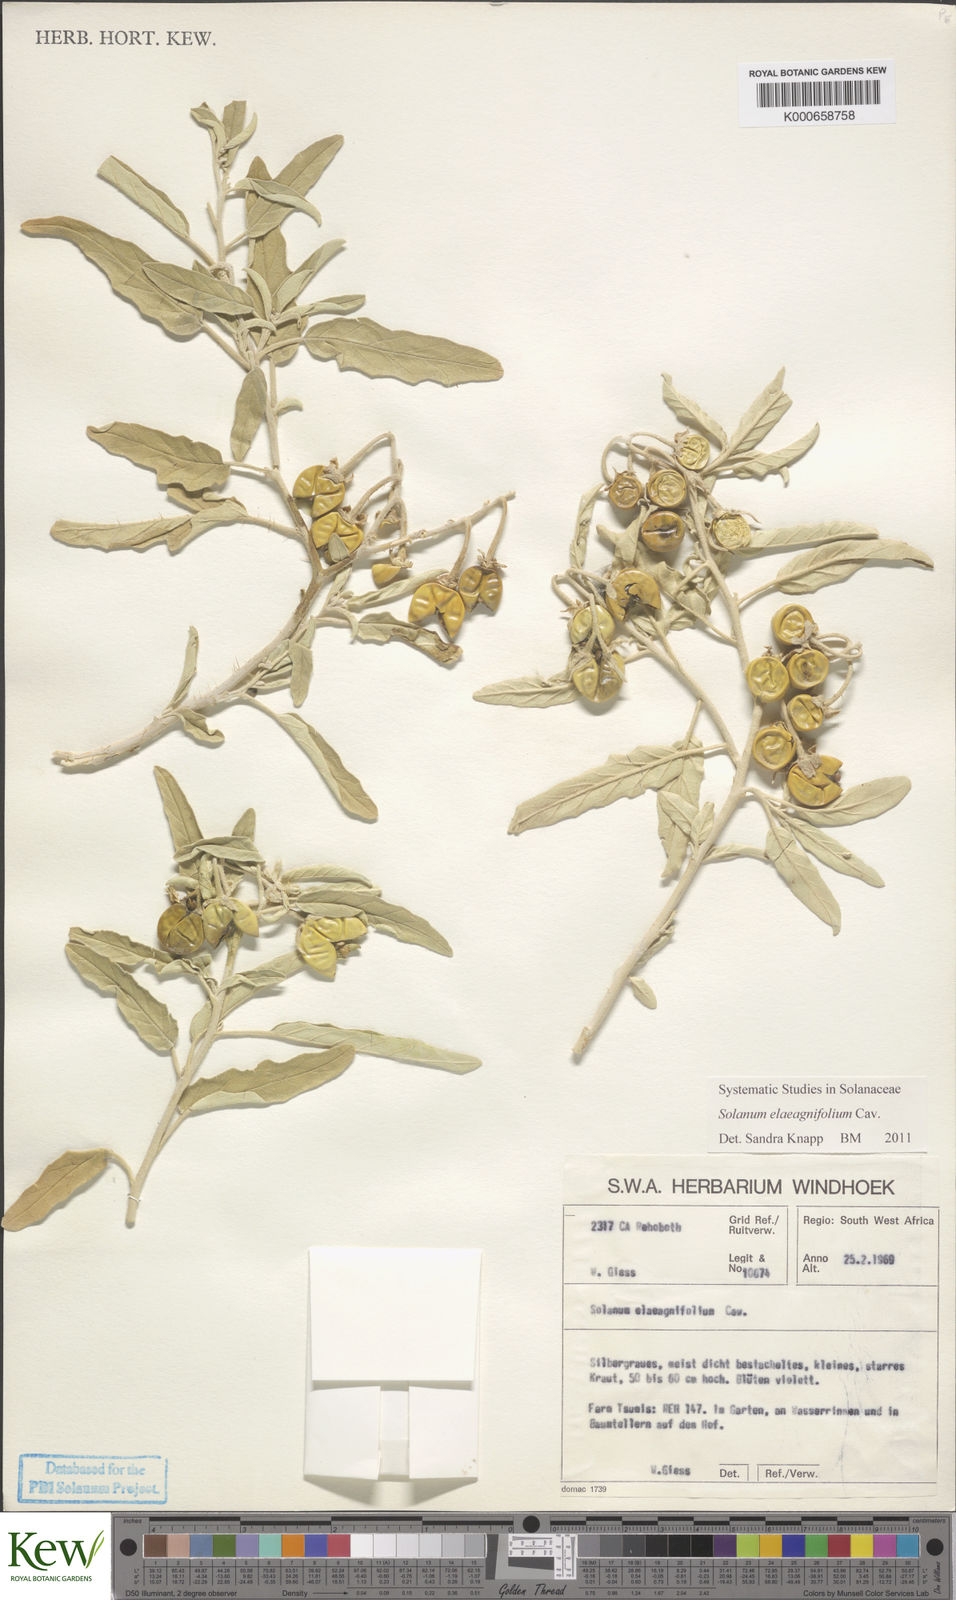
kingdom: Plantae
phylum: Tracheophyta
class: Magnoliopsida
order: Solanales
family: Solanaceae
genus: Solanum
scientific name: Solanum elaeagnifolium
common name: Silverleaf nightshade
